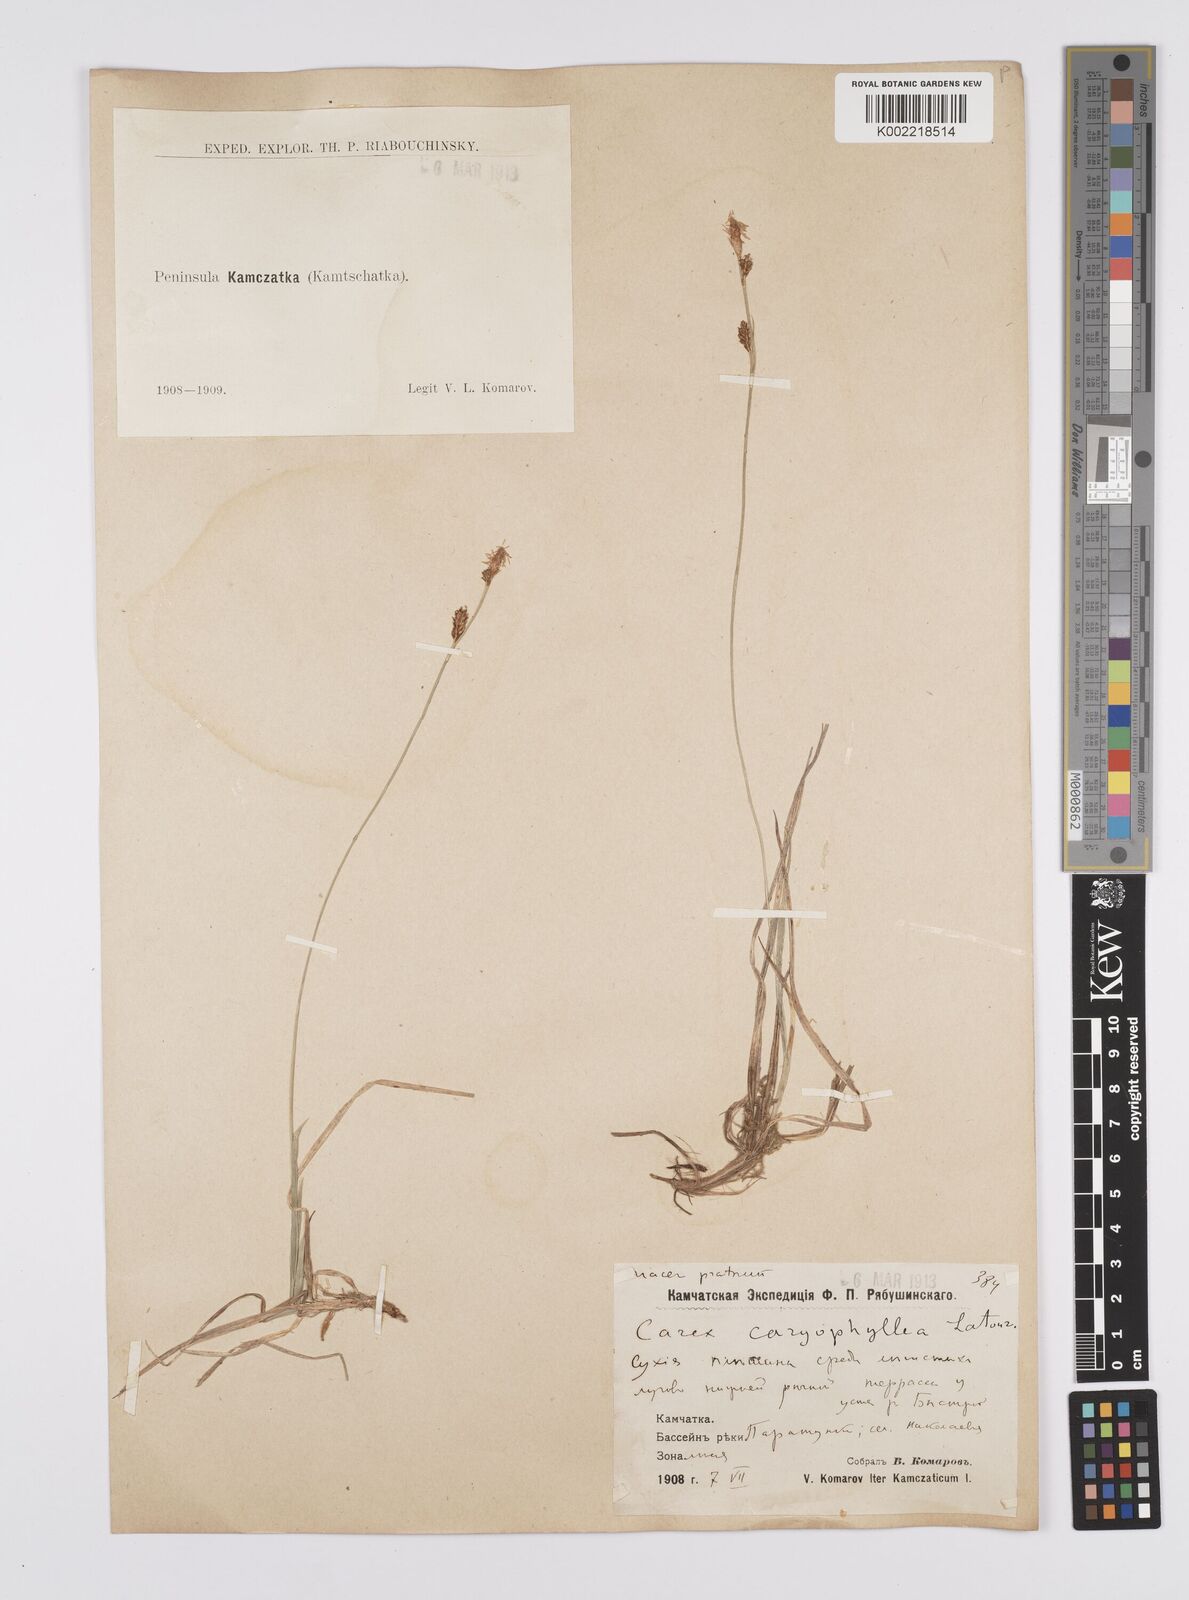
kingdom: Plantae
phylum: Tracheophyta
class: Liliopsida
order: Poales
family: Cyperaceae
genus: Carex
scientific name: Carex caryophyllea
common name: Spring sedge
